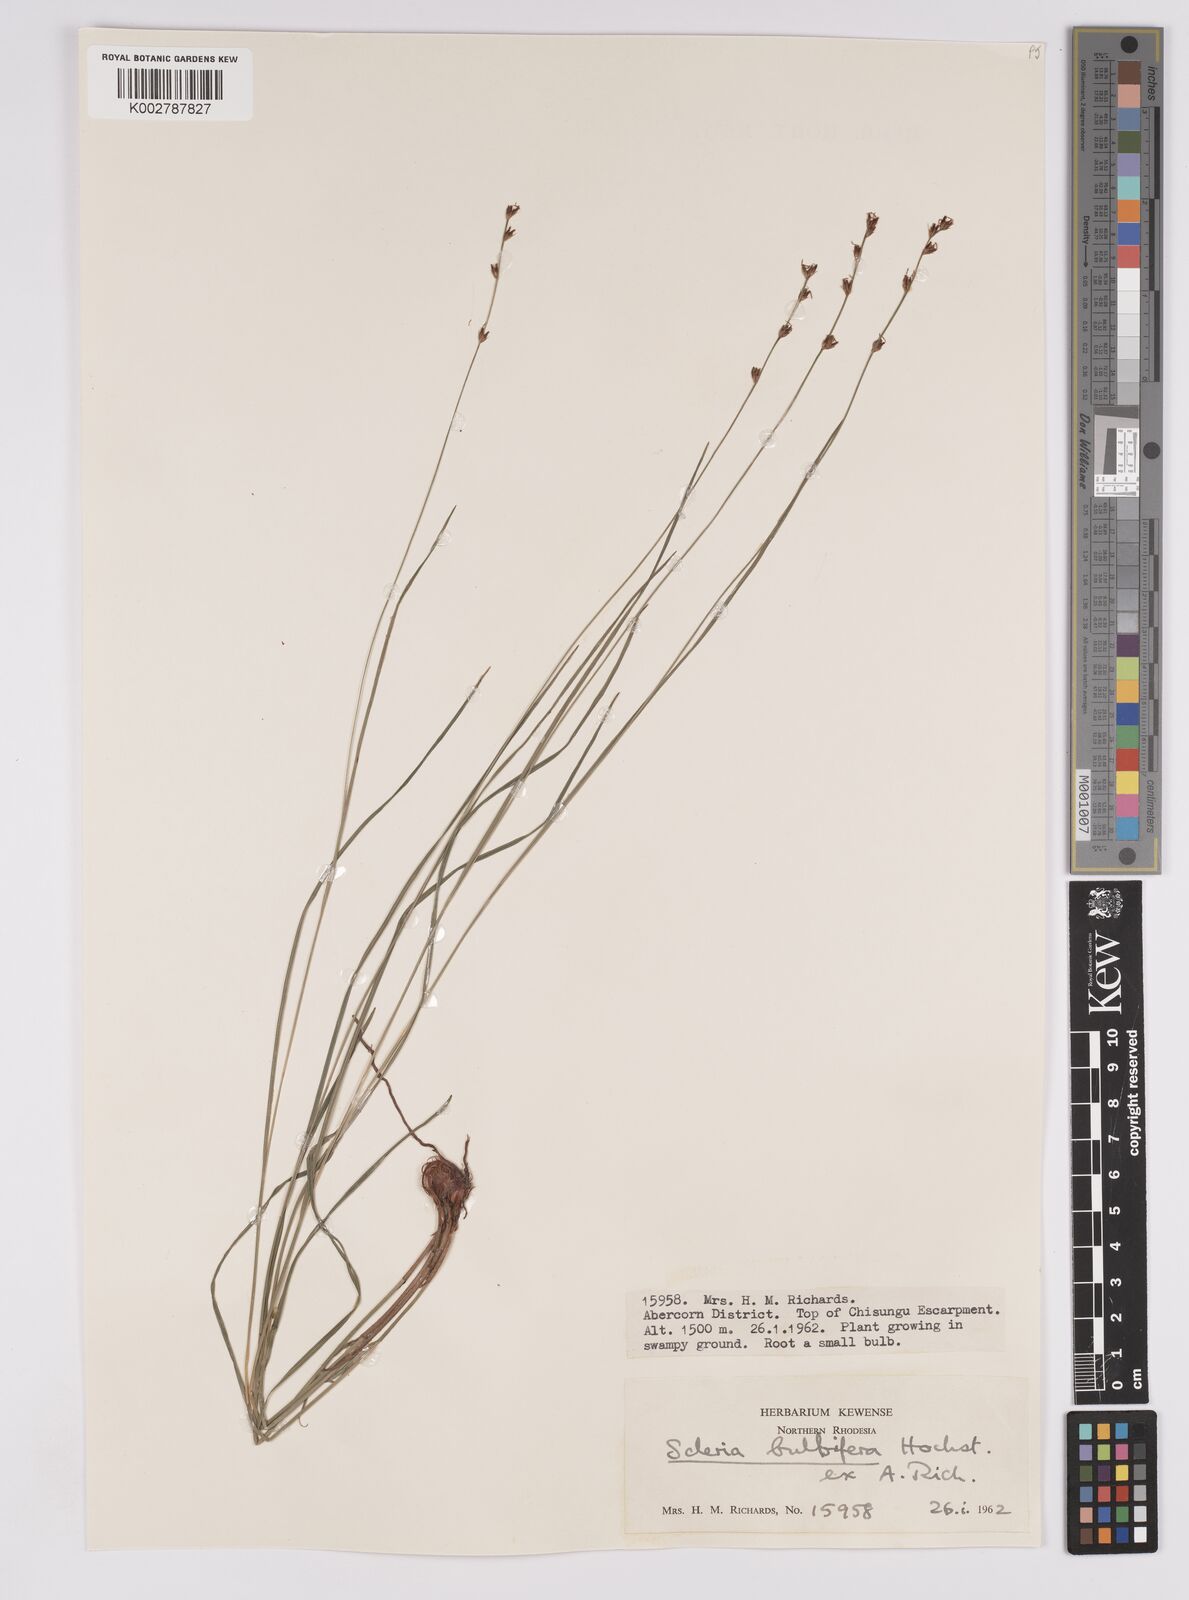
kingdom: Plantae
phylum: Tracheophyta
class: Liliopsida
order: Poales
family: Cyperaceae
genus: Scleria
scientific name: Scleria bulbifera
